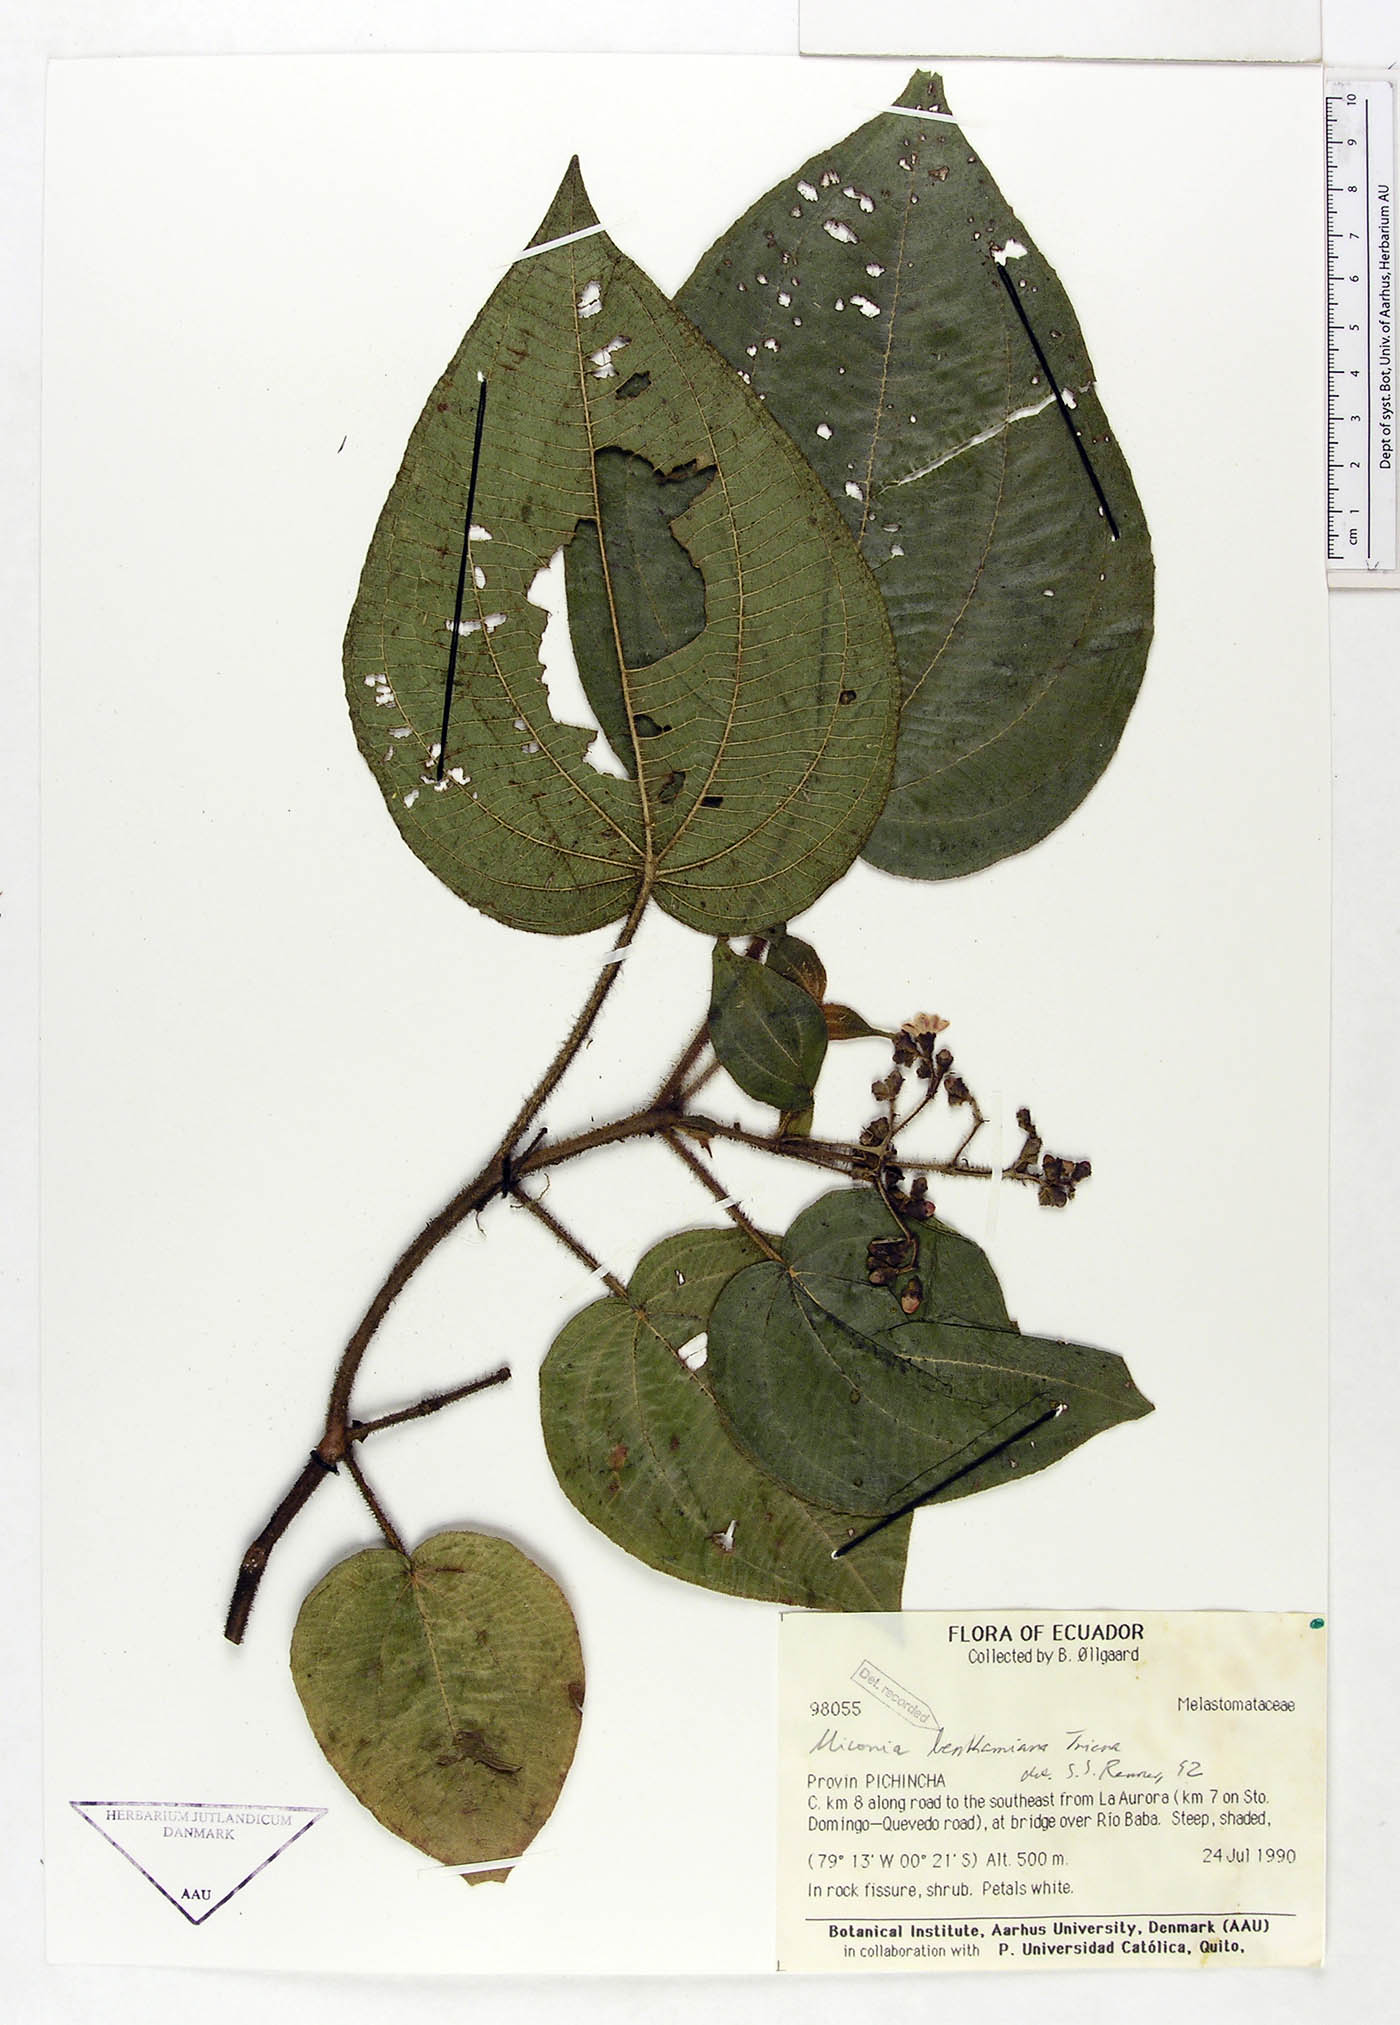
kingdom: Plantae
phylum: Tracheophyta
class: Magnoliopsida
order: Myrtales
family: Melastomataceae
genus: Miconia
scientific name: Miconia benthamiana
